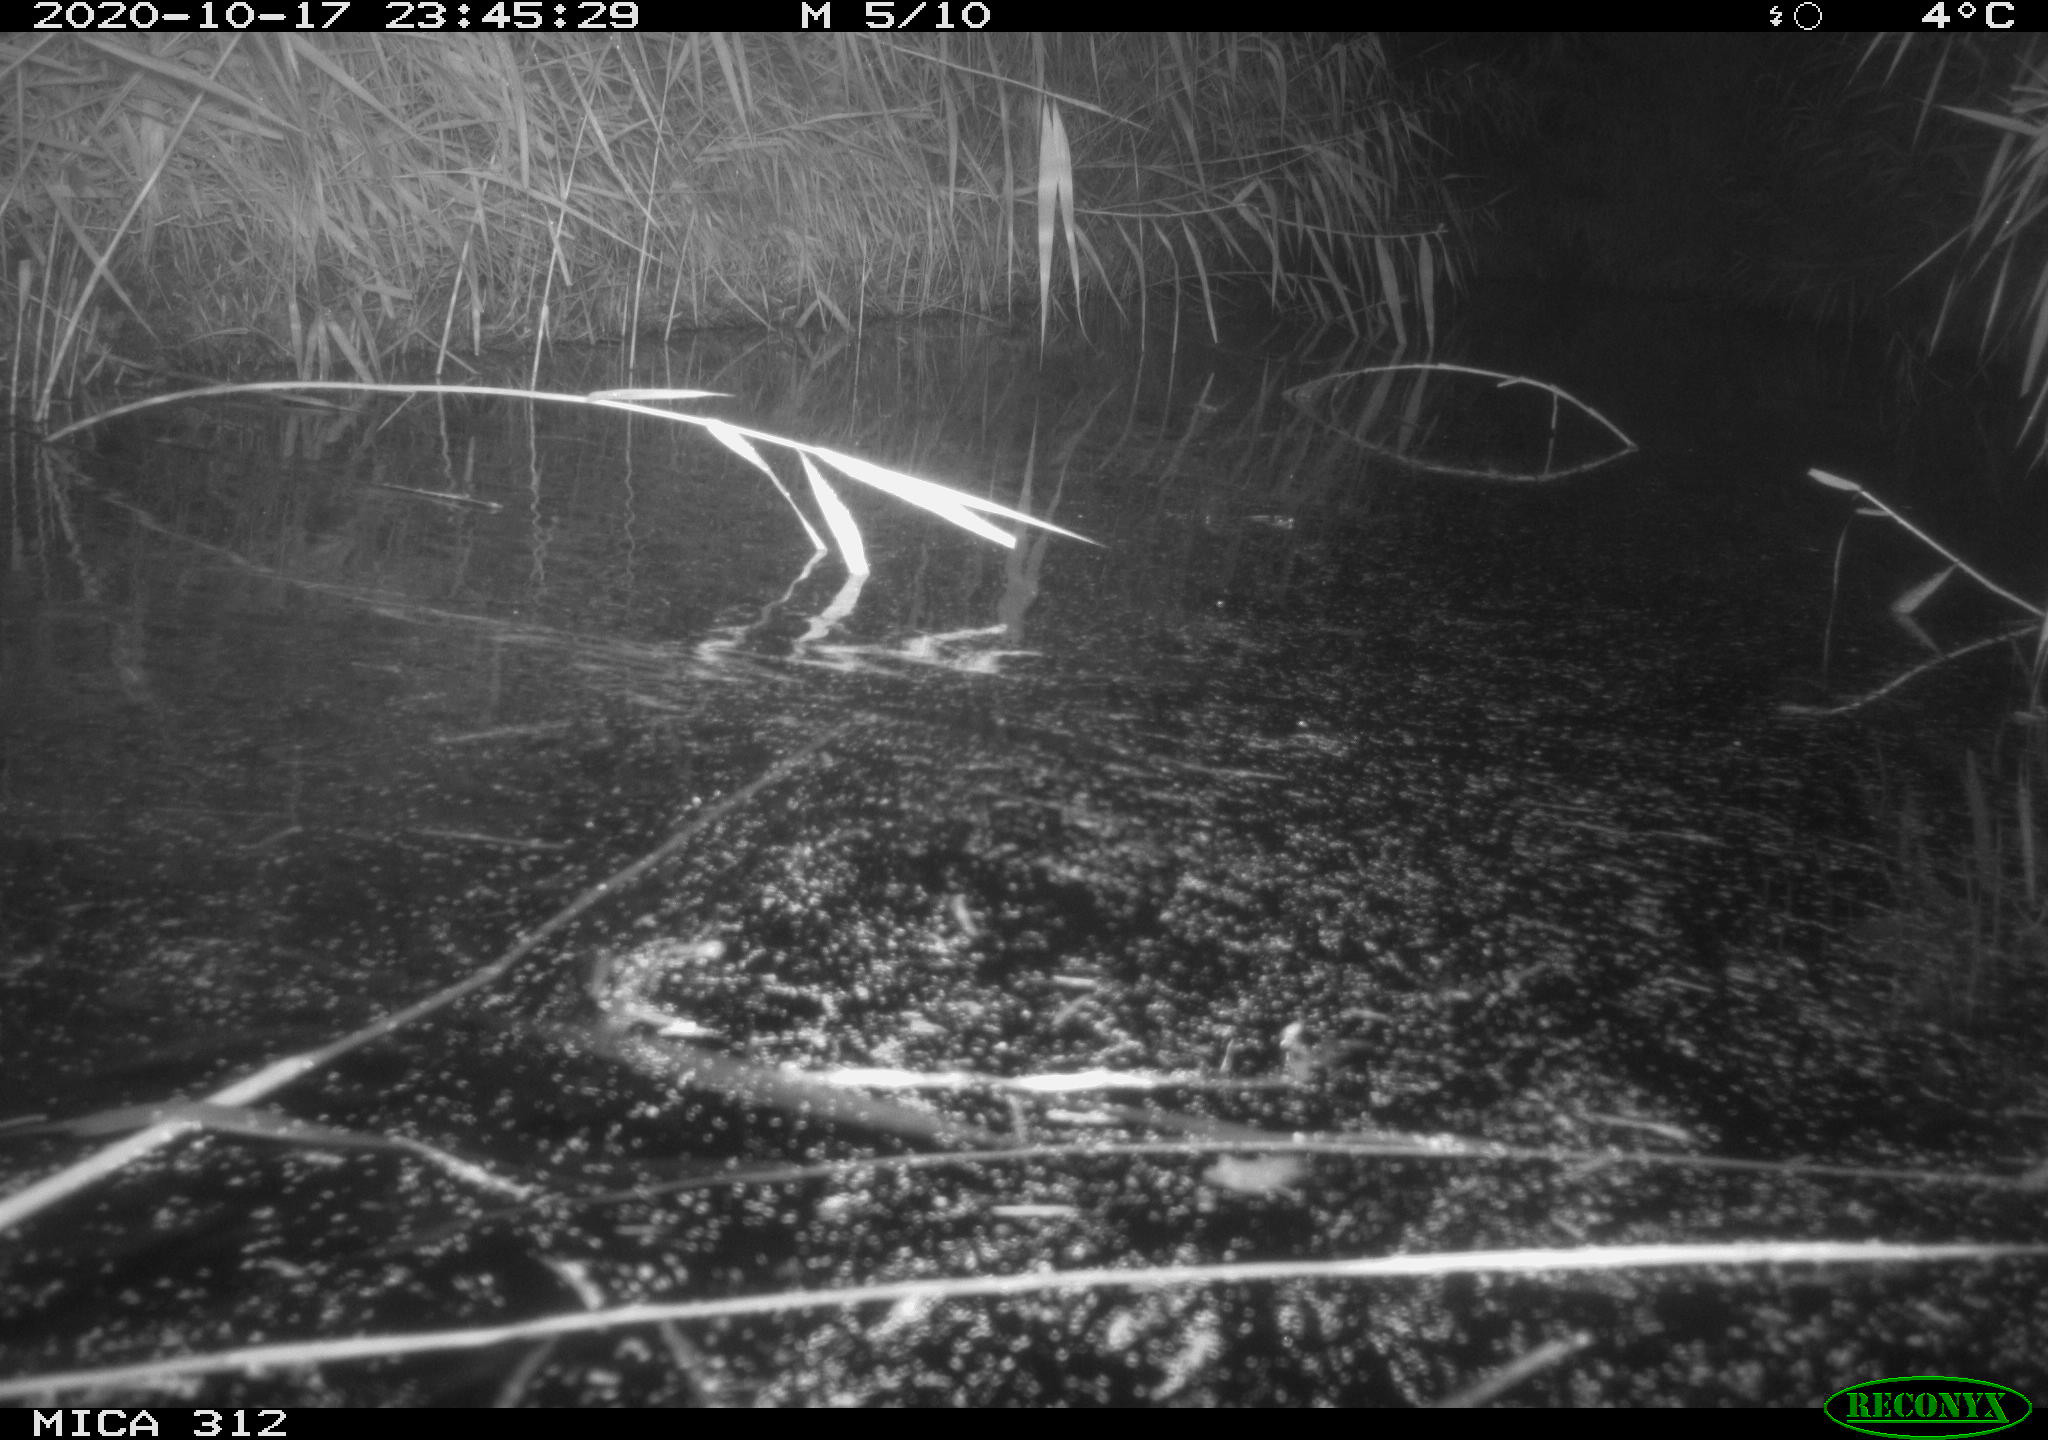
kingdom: Animalia
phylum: Chordata
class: Mammalia
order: Rodentia
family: Muridae
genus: Rattus
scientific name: Rattus norvegicus
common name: Brown rat
